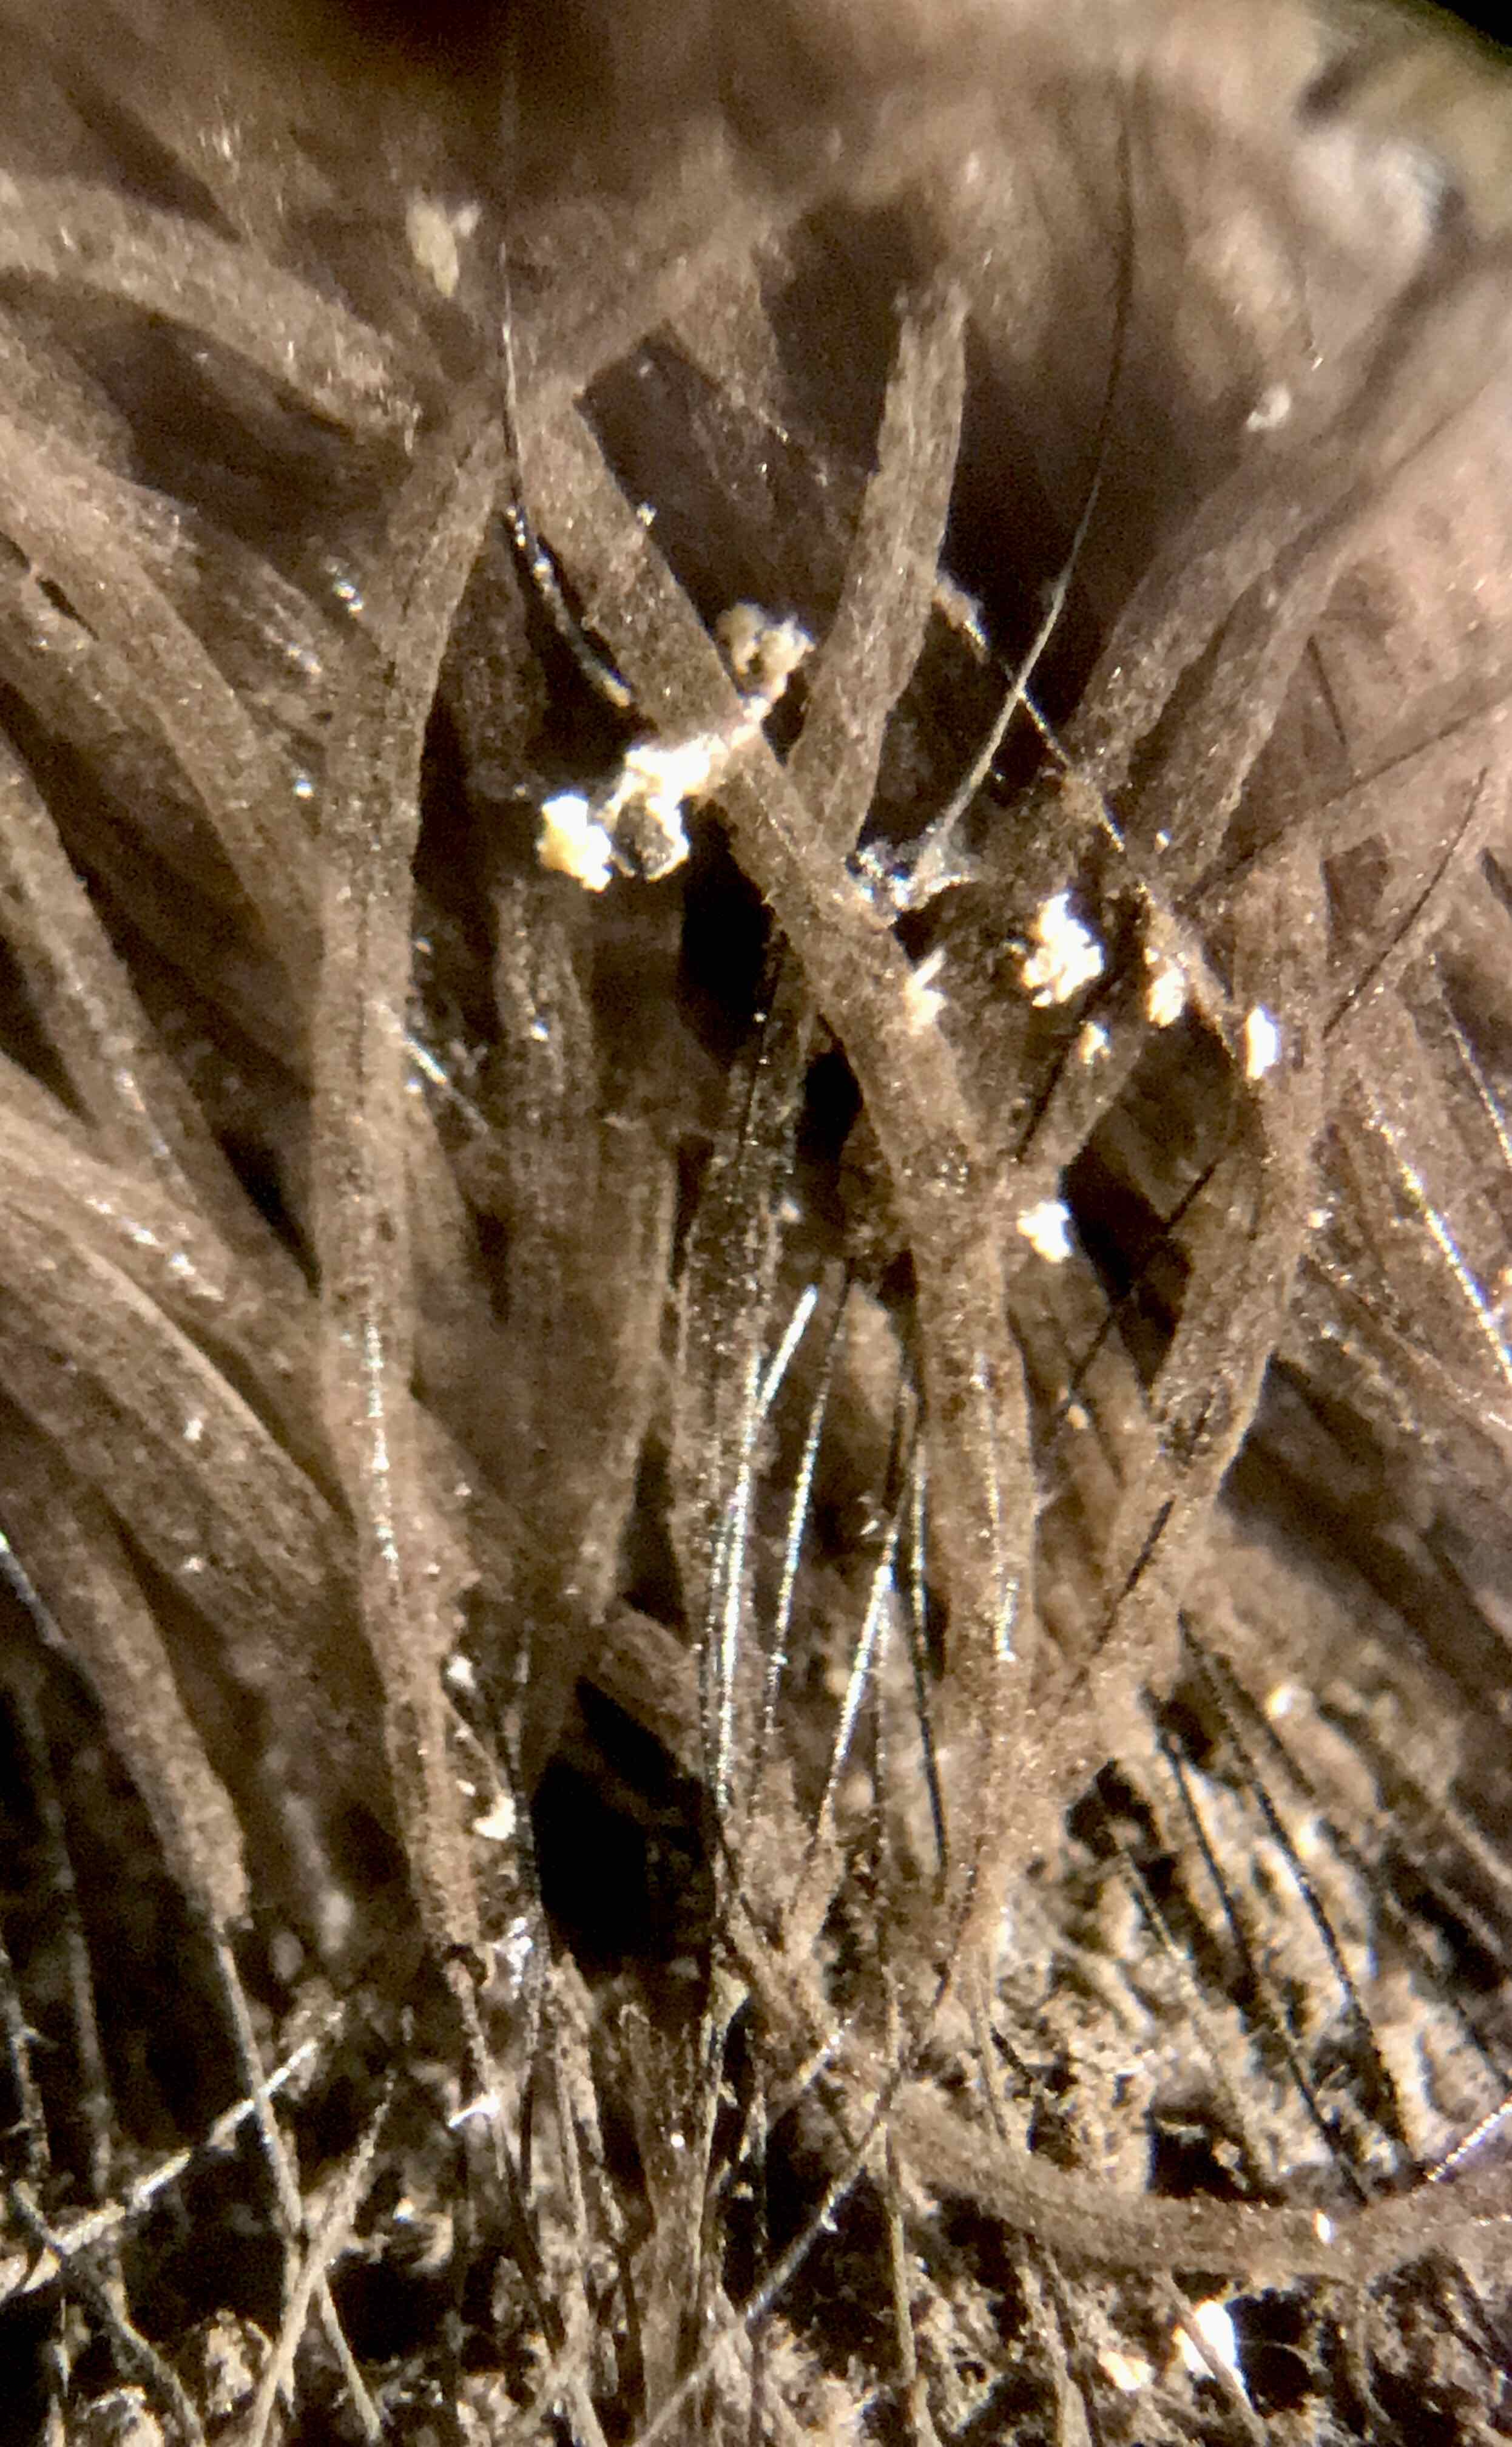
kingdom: Protozoa
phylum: Mycetozoa
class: Myxomycetes
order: Stemonitidales
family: Stemonitidaceae
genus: Stemonitis
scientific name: Stemonitis fusca
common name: sodbrun støvkølle
